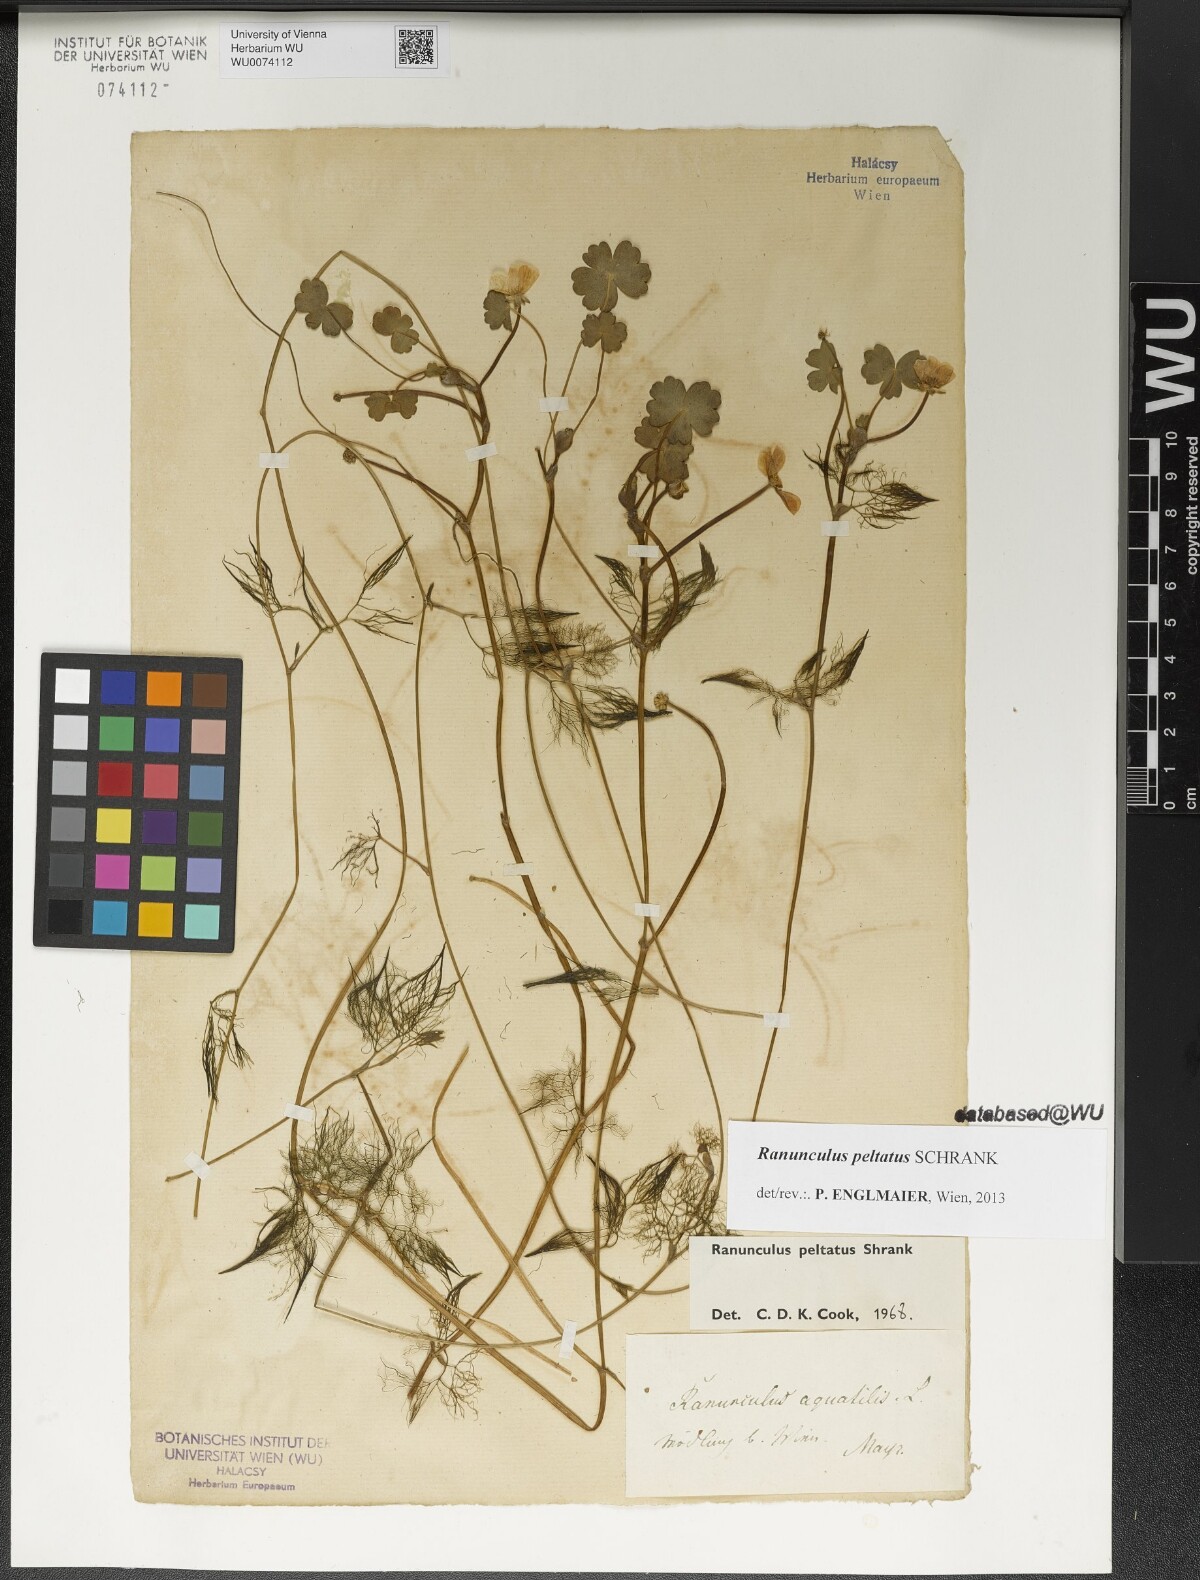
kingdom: Plantae
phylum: Tracheophyta
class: Magnoliopsida
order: Ranunculales
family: Ranunculaceae
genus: Ranunculus
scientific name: Ranunculus peltatus
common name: Pond water-crowfoot
